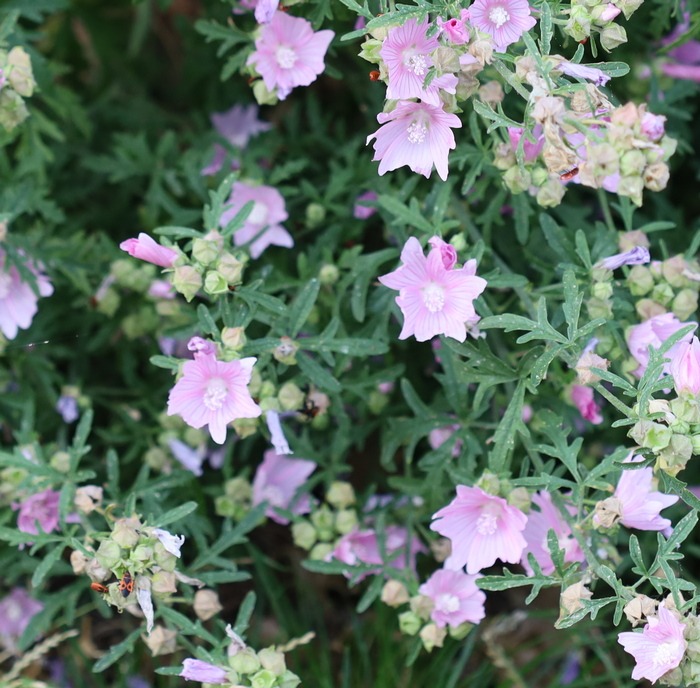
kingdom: Plantae
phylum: Tracheophyta
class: Magnoliopsida
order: Malvales
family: Malvaceae
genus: Malva
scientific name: Malva alcea
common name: Rosen-katost
